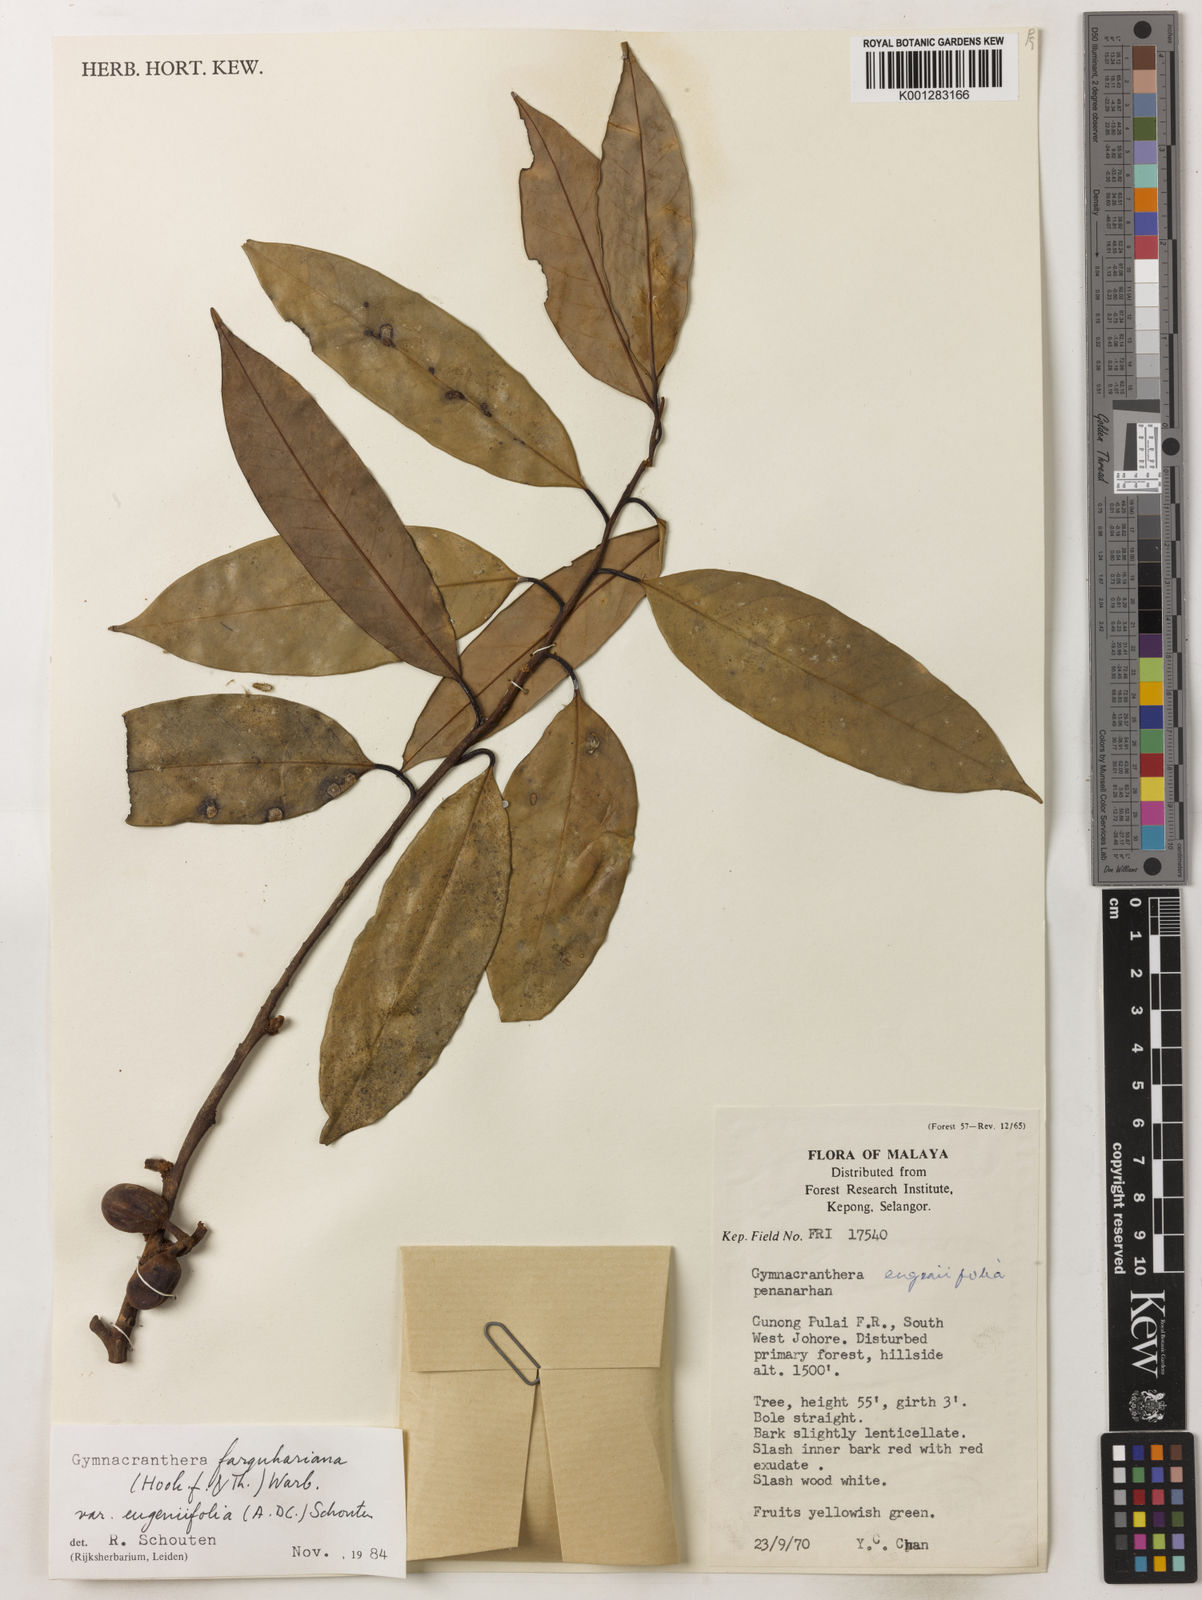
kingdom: Plantae
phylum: Tracheophyta
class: Magnoliopsida
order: Magnoliales
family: Myristicaceae
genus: Gymnacranthera
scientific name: Gymnacranthera farquhariana
